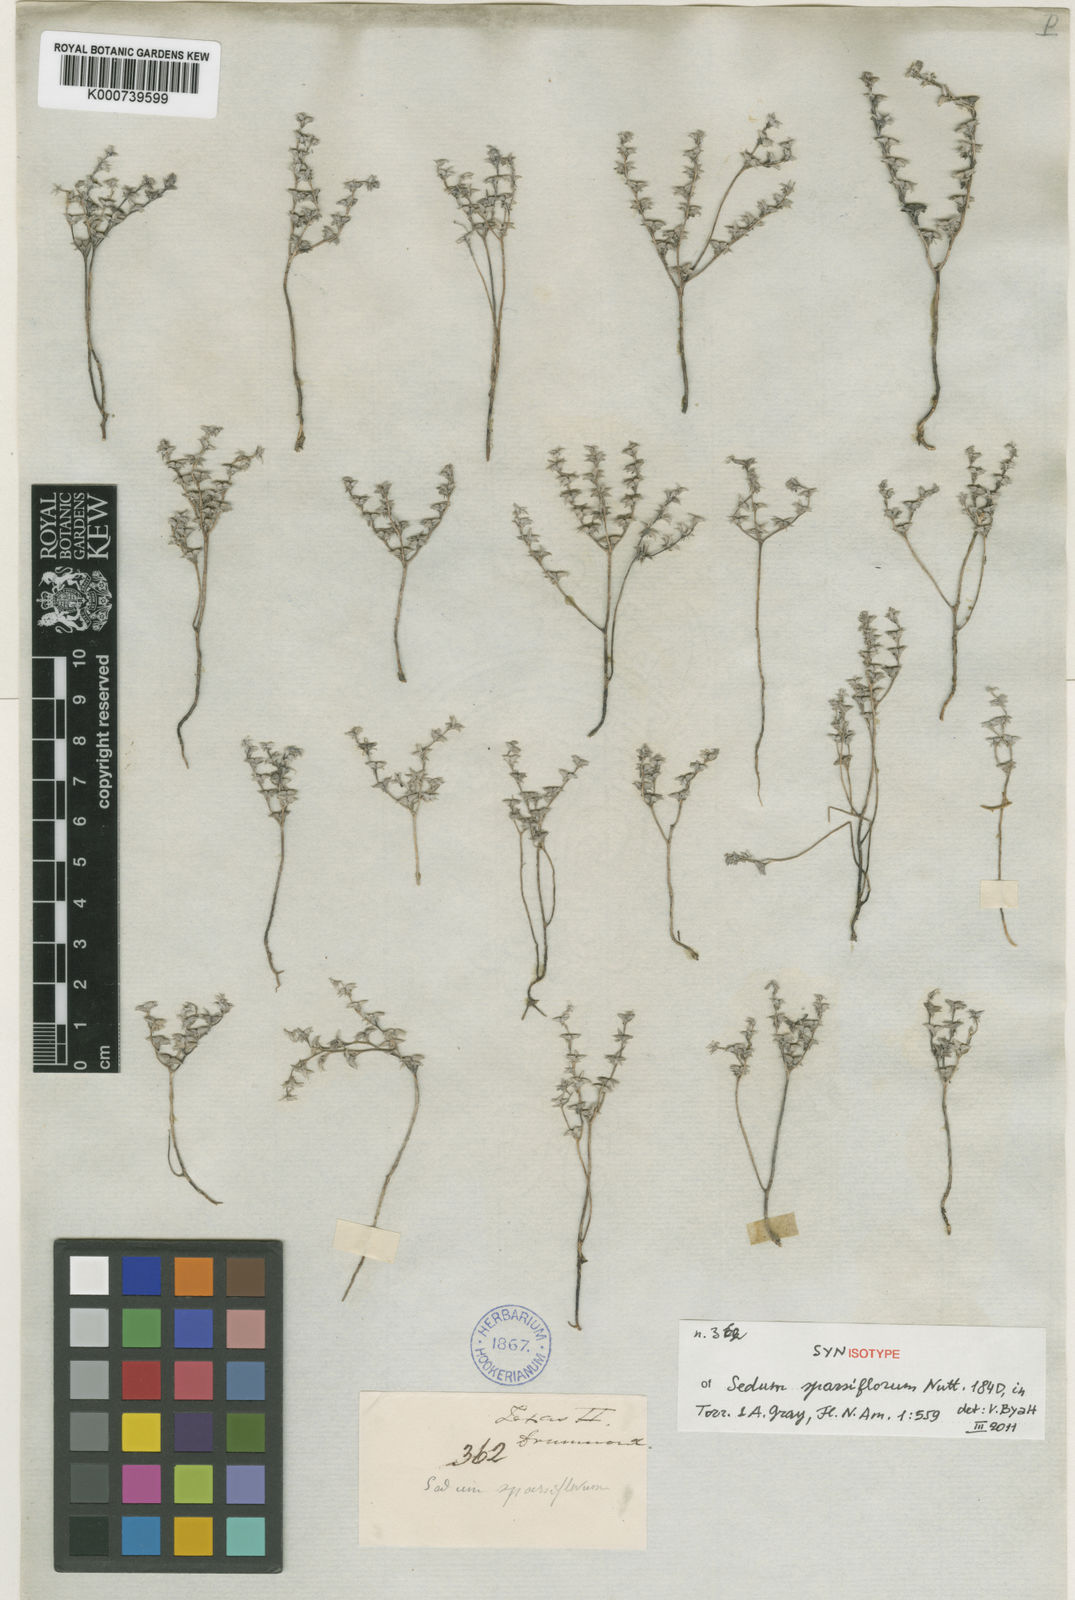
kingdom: Plantae
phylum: Tracheophyta
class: Magnoliopsida
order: Saxifragales
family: Crassulaceae
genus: Sedum
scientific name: Sedum
